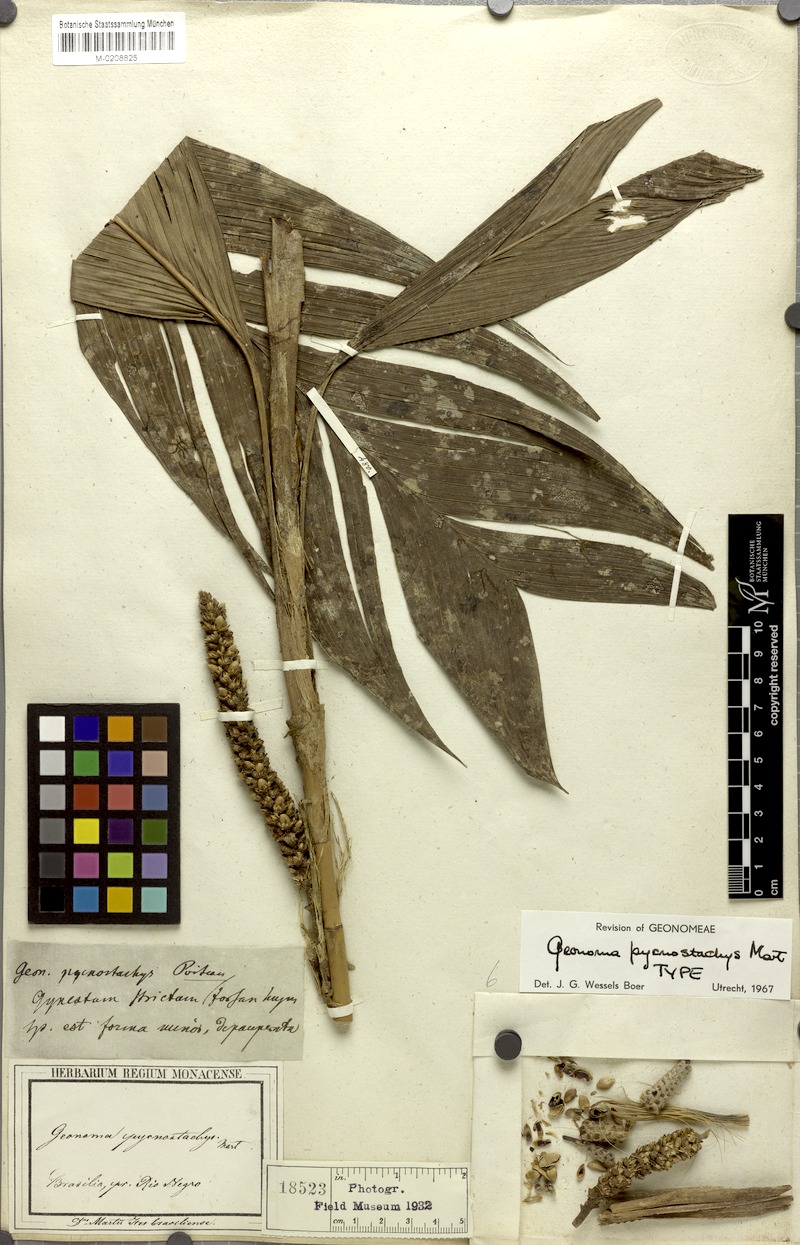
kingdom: Plantae
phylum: Tracheophyta
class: Liliopsida
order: Arecales
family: Arecaceae
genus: Geonoma
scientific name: Geonoma stricta
